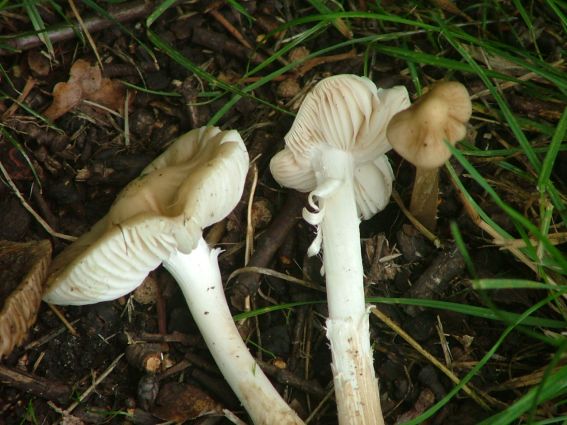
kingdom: Fungi
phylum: Basidiomycota
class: Agaricomycetes
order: Agaricales
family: Physalacriaceae
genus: Hymenopellis
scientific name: Hymenopellis radicata
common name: almindelig pælerodshat
